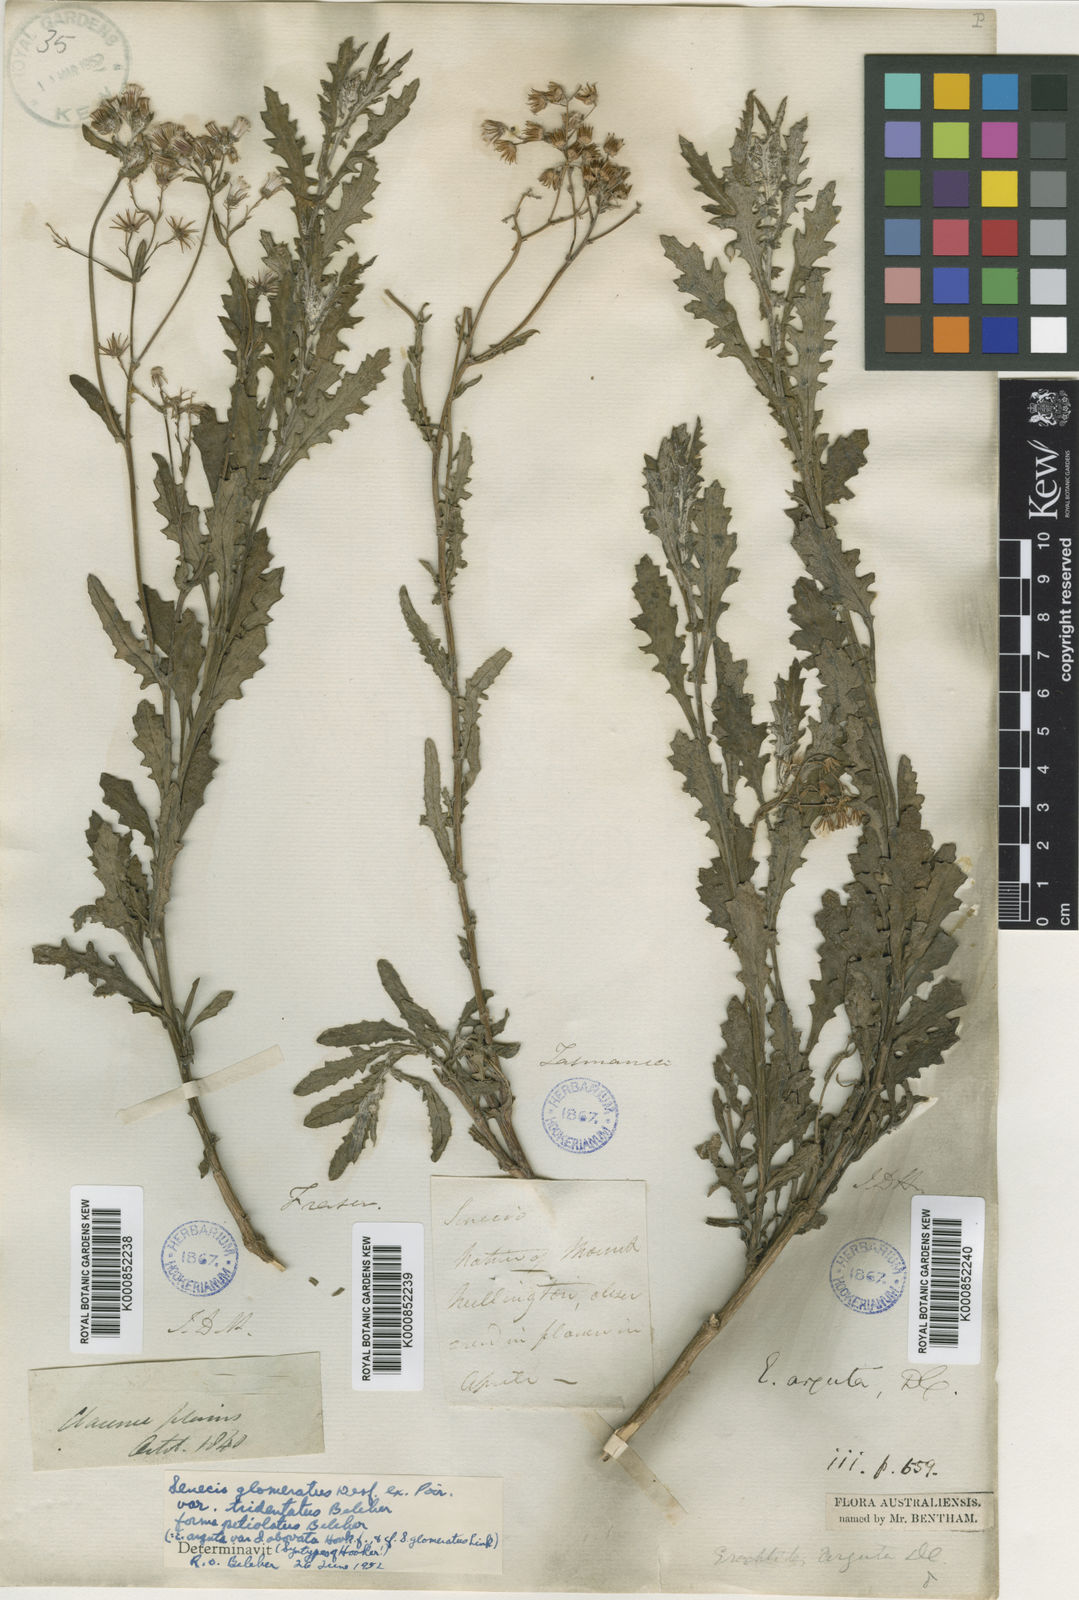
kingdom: Plantae
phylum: Tracheophyta
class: Magnoliopsida
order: Asterales
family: Asteraceae
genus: Senecio
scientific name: Senecio glomeratus
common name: Cutleaf burnweed
